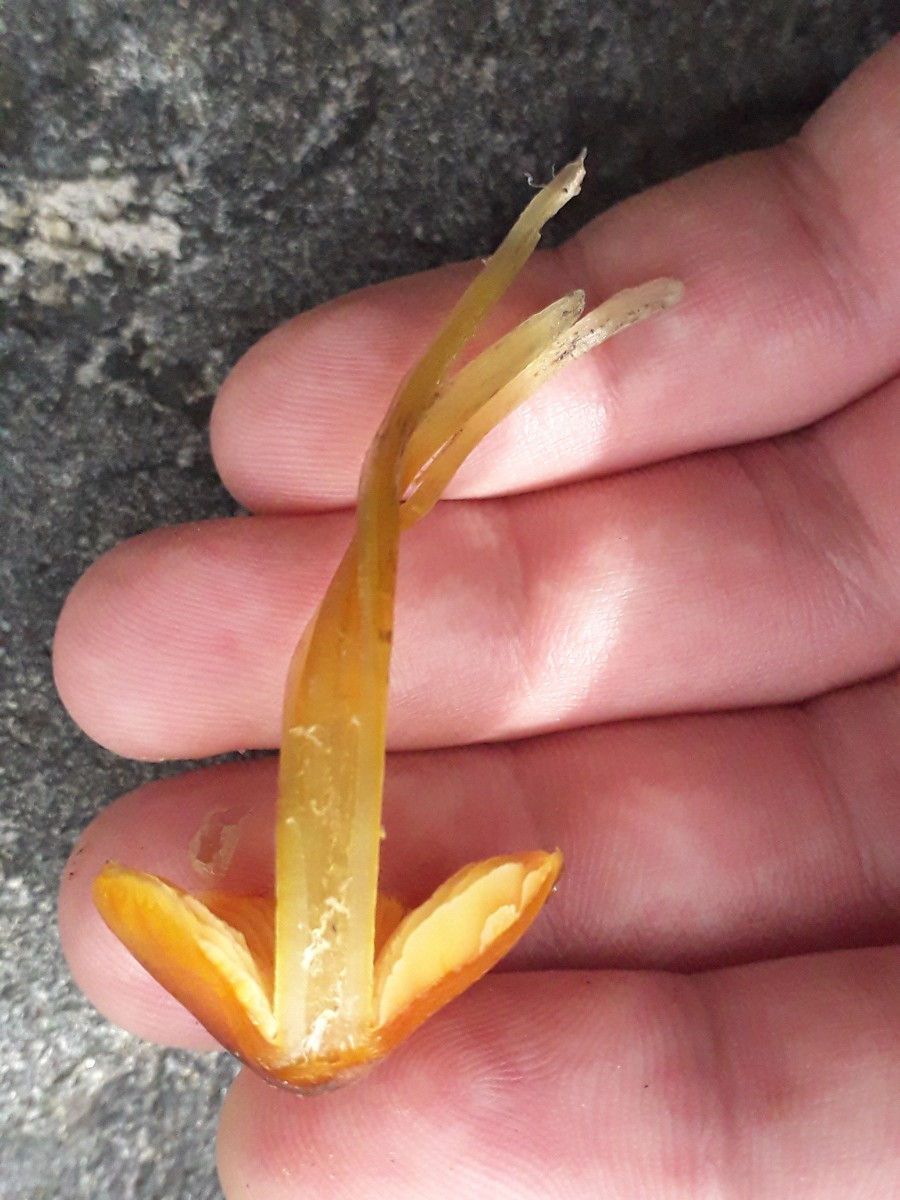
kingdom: Fungi
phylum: Basidiomycota
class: Agaricomycetes
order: Agaricales
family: Hygrophoraceae
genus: Hygrocybe
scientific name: Hygrocybe conica
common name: kegle-vokshat
